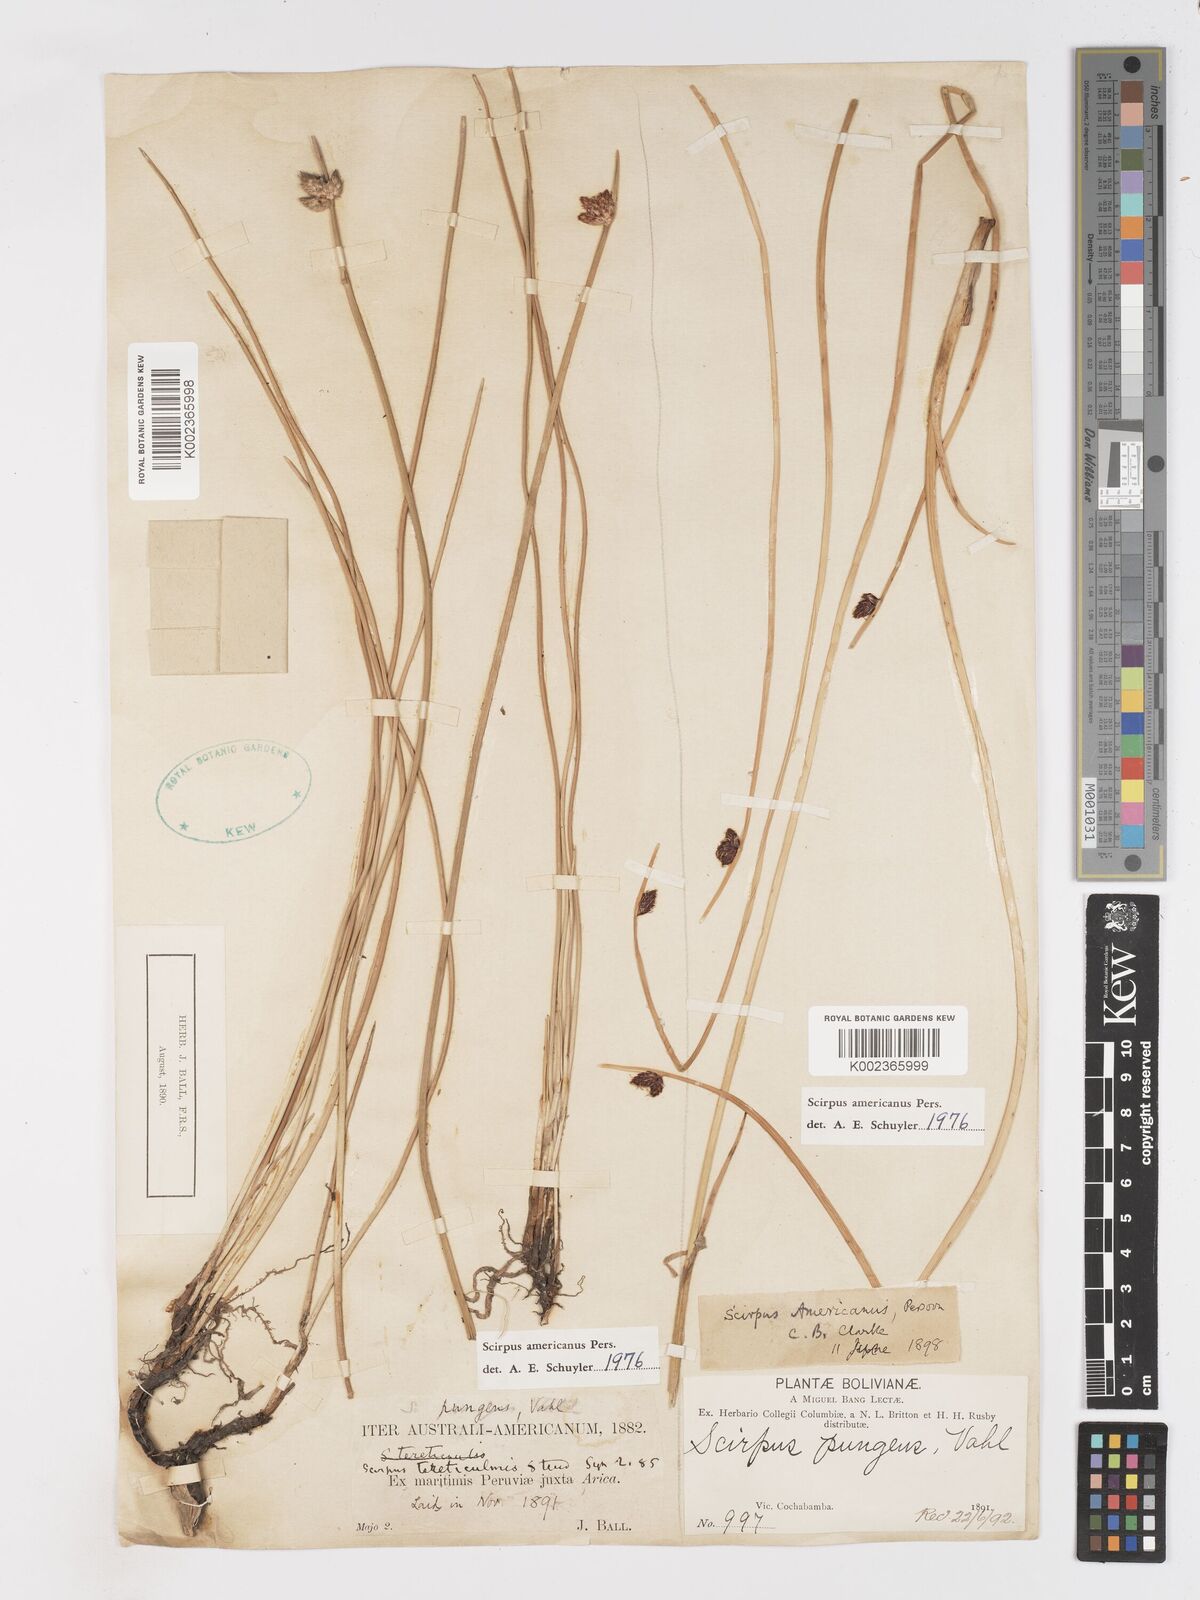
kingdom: Plantae
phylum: Tracheophyta
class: Liliopsida
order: Poales
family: Cyperaceae
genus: Schoenoplectus
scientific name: Schoenoplectus americanus
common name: American three-square bulrush
